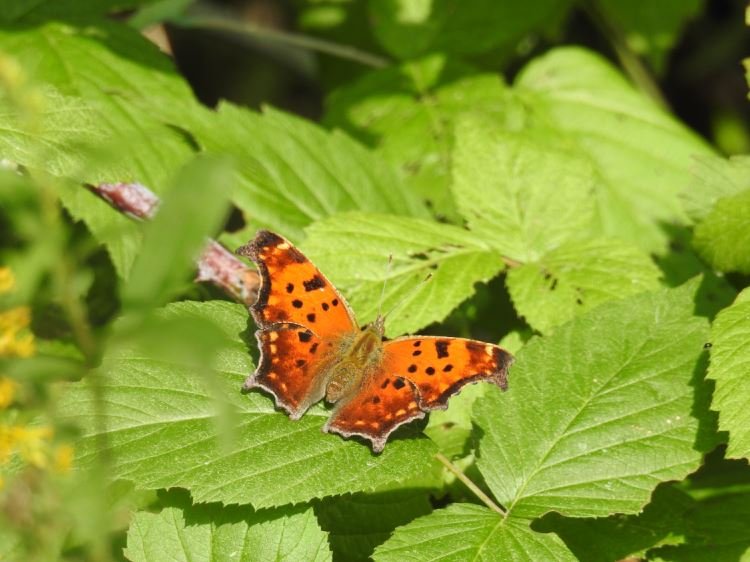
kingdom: Animalia
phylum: Arthropoda
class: Insecta
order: Lepidoptera
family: Nymphalidae
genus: Polygonia
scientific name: Polygonia comma
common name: Eastern Comma
